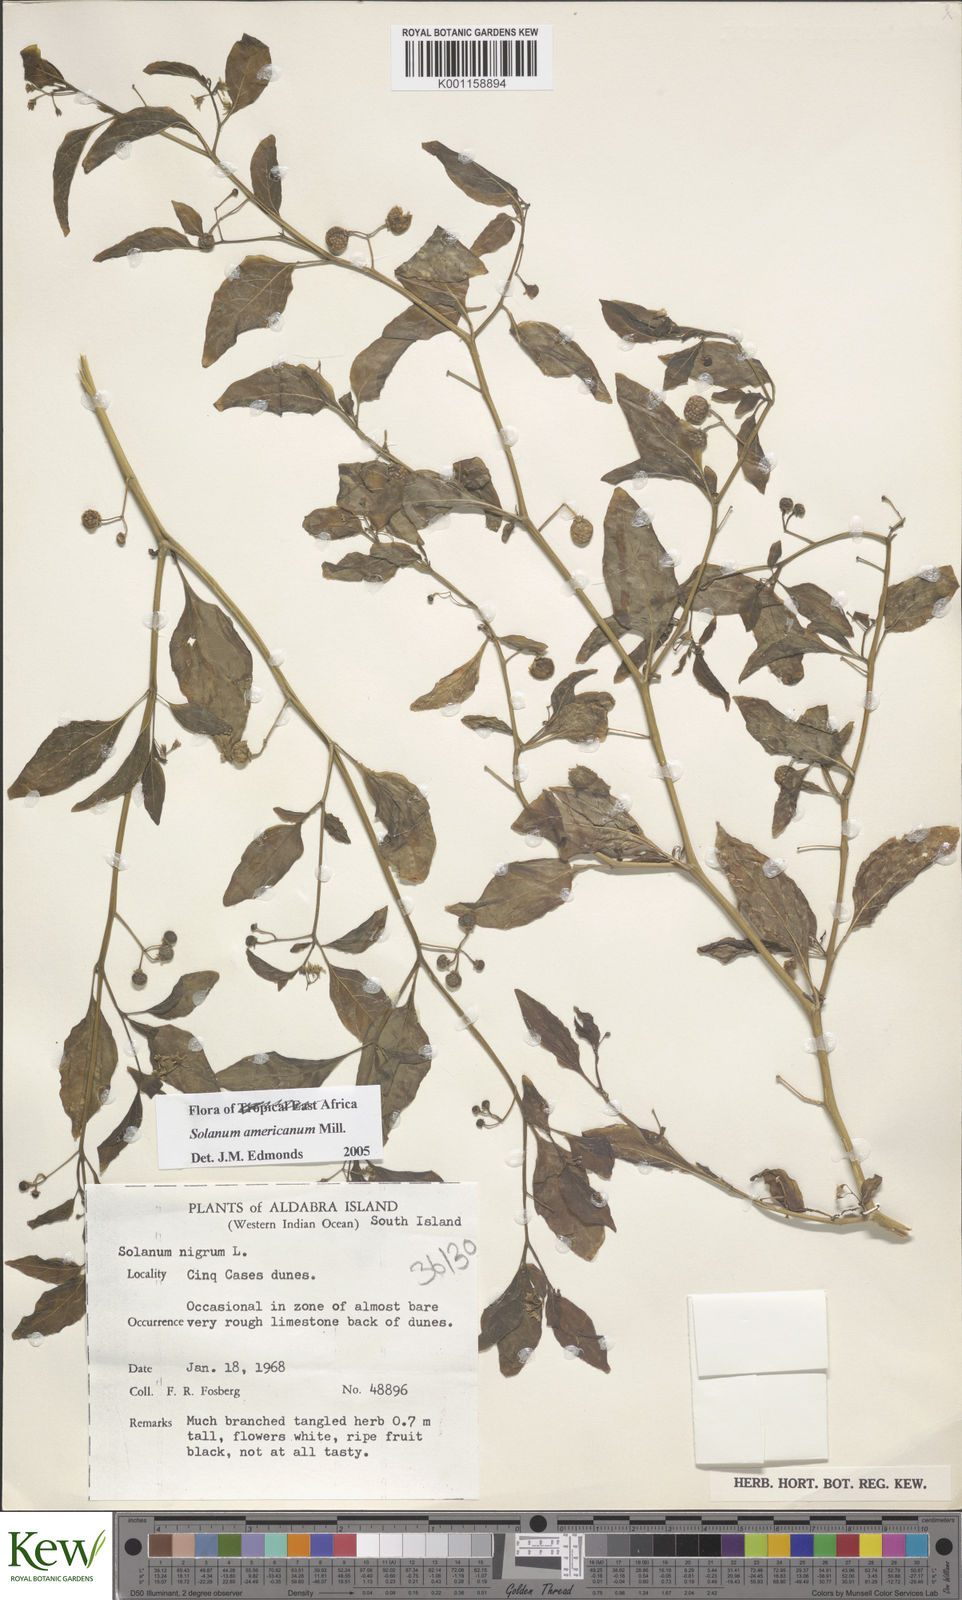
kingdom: Plantae
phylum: Tracheophyta
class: Magnoliopsida
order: Solanales
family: Solanaceae
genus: Solanum
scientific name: Solanum americanum
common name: American black nightshade
